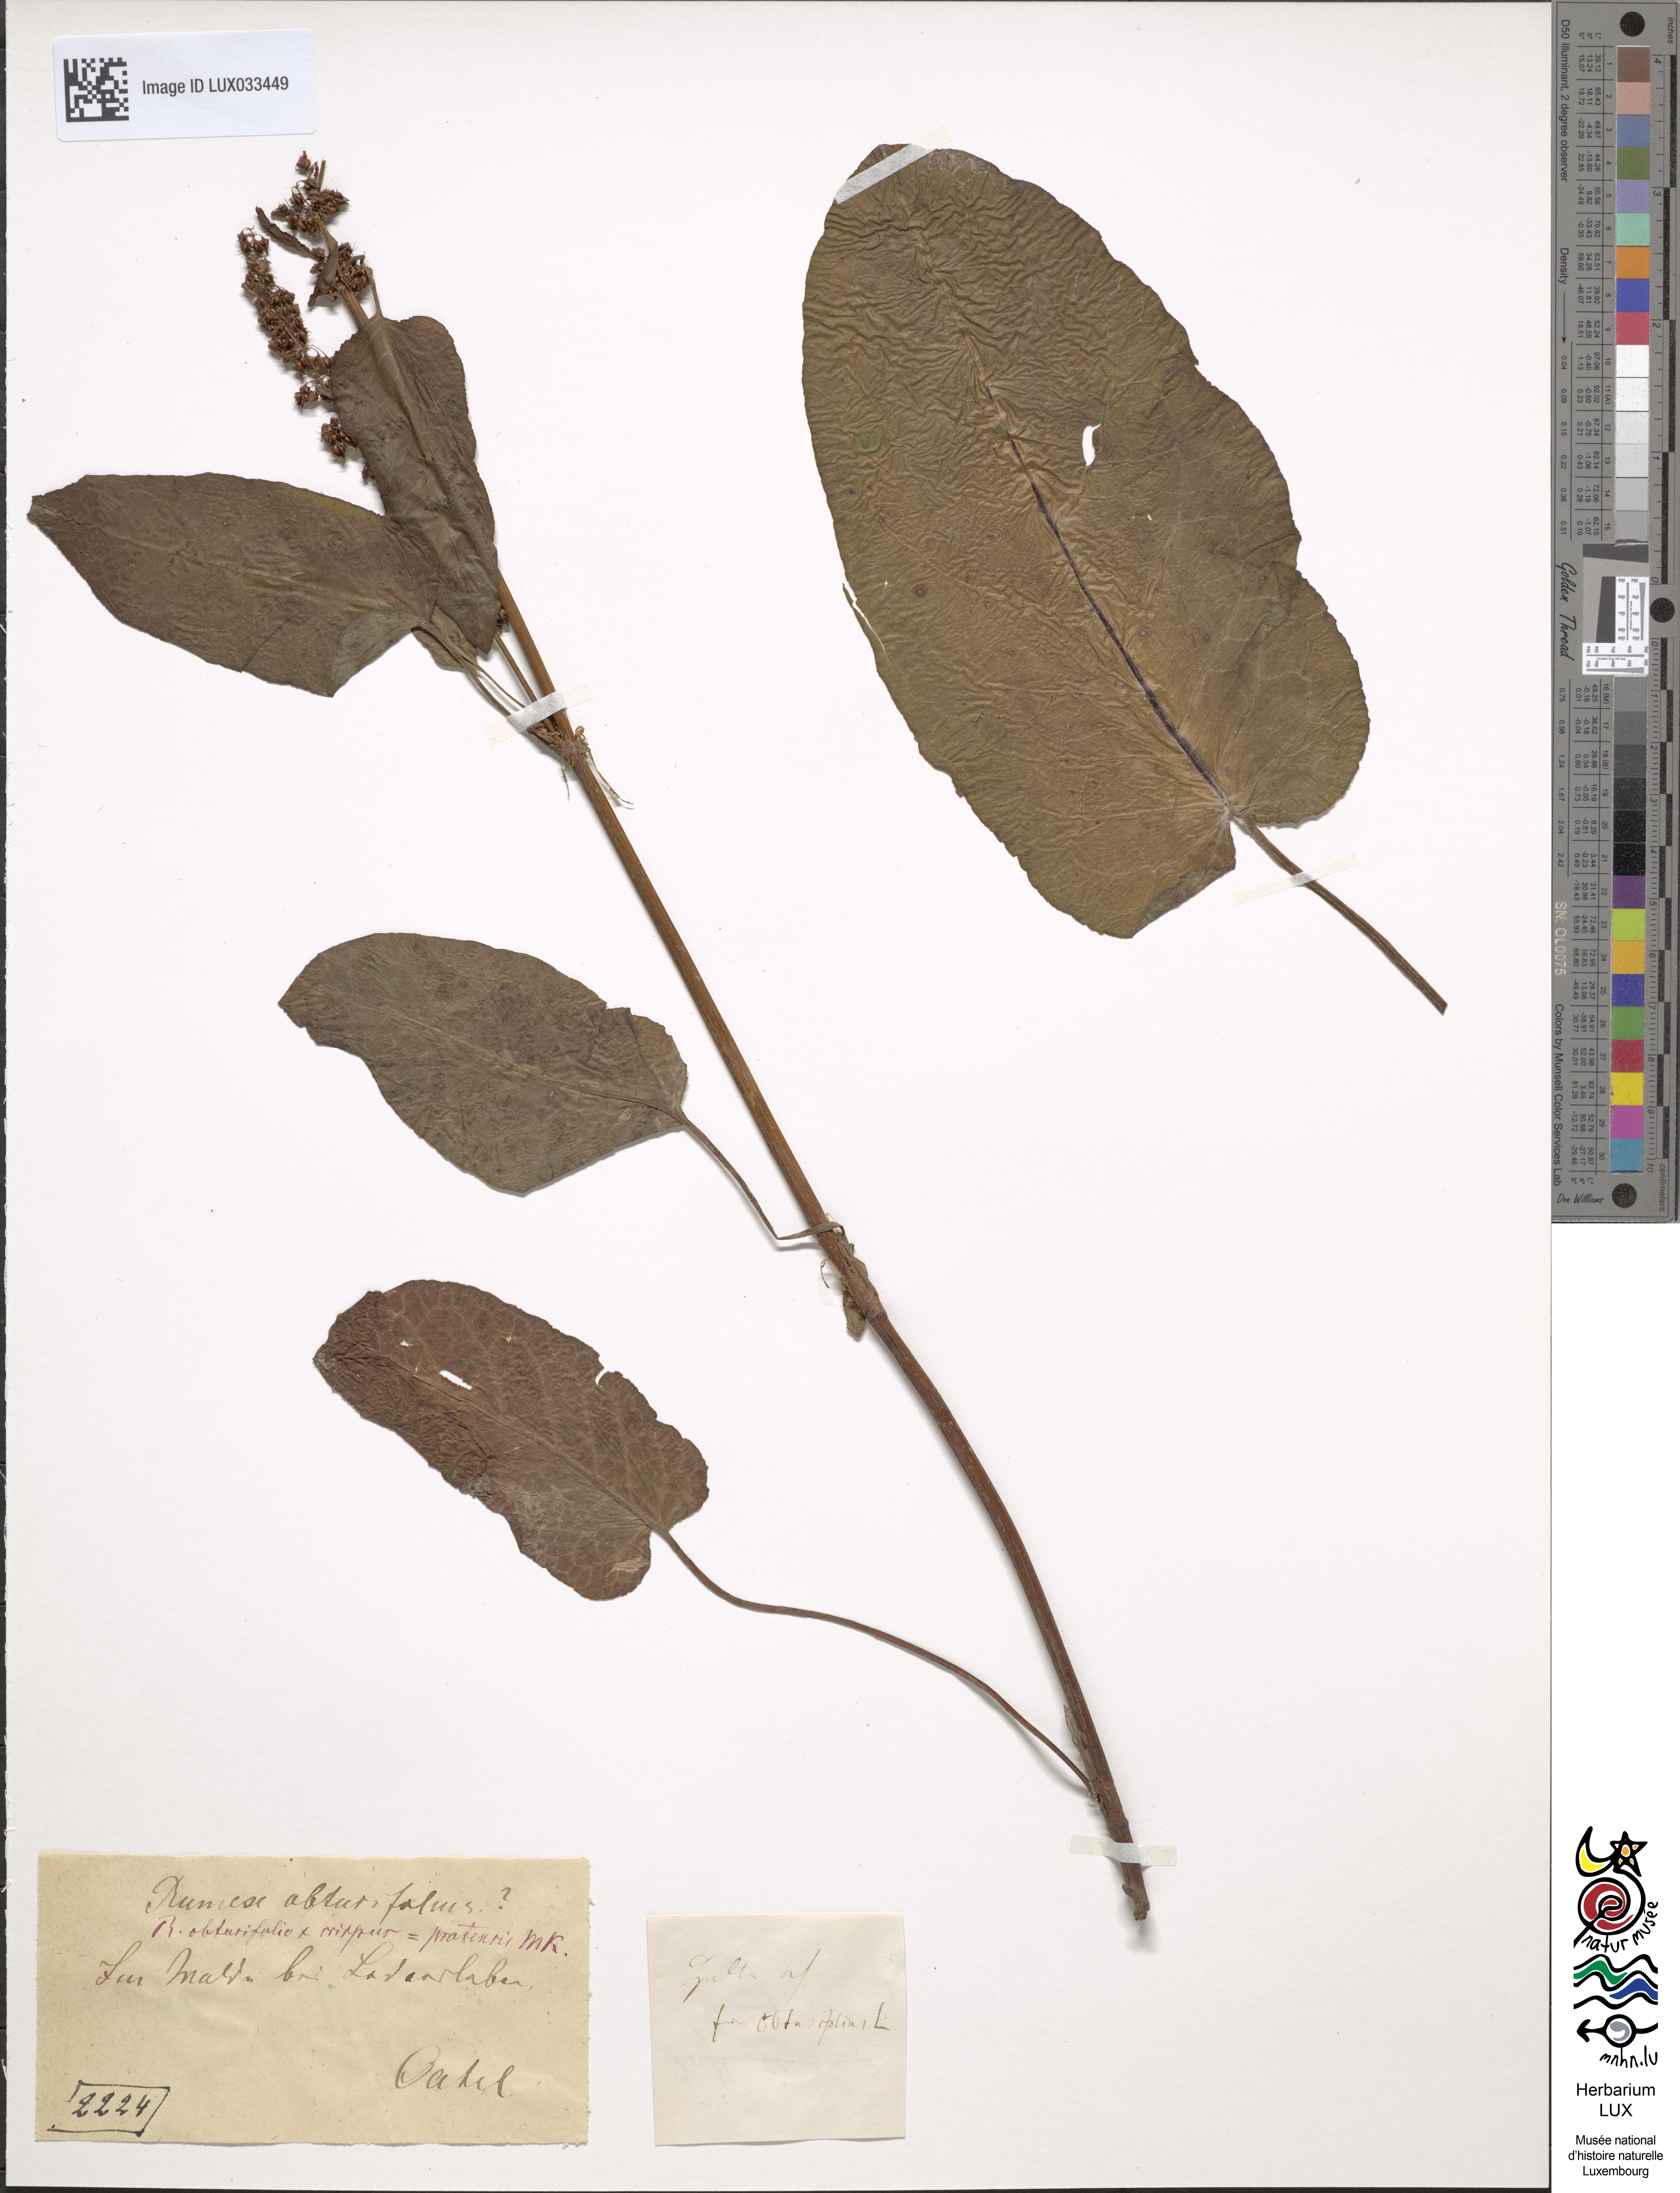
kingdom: Plantae
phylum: Tracheophyta
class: Magnoliopsida
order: Caryophyllales
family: Polygonaceae
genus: Rumex
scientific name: Rumex
